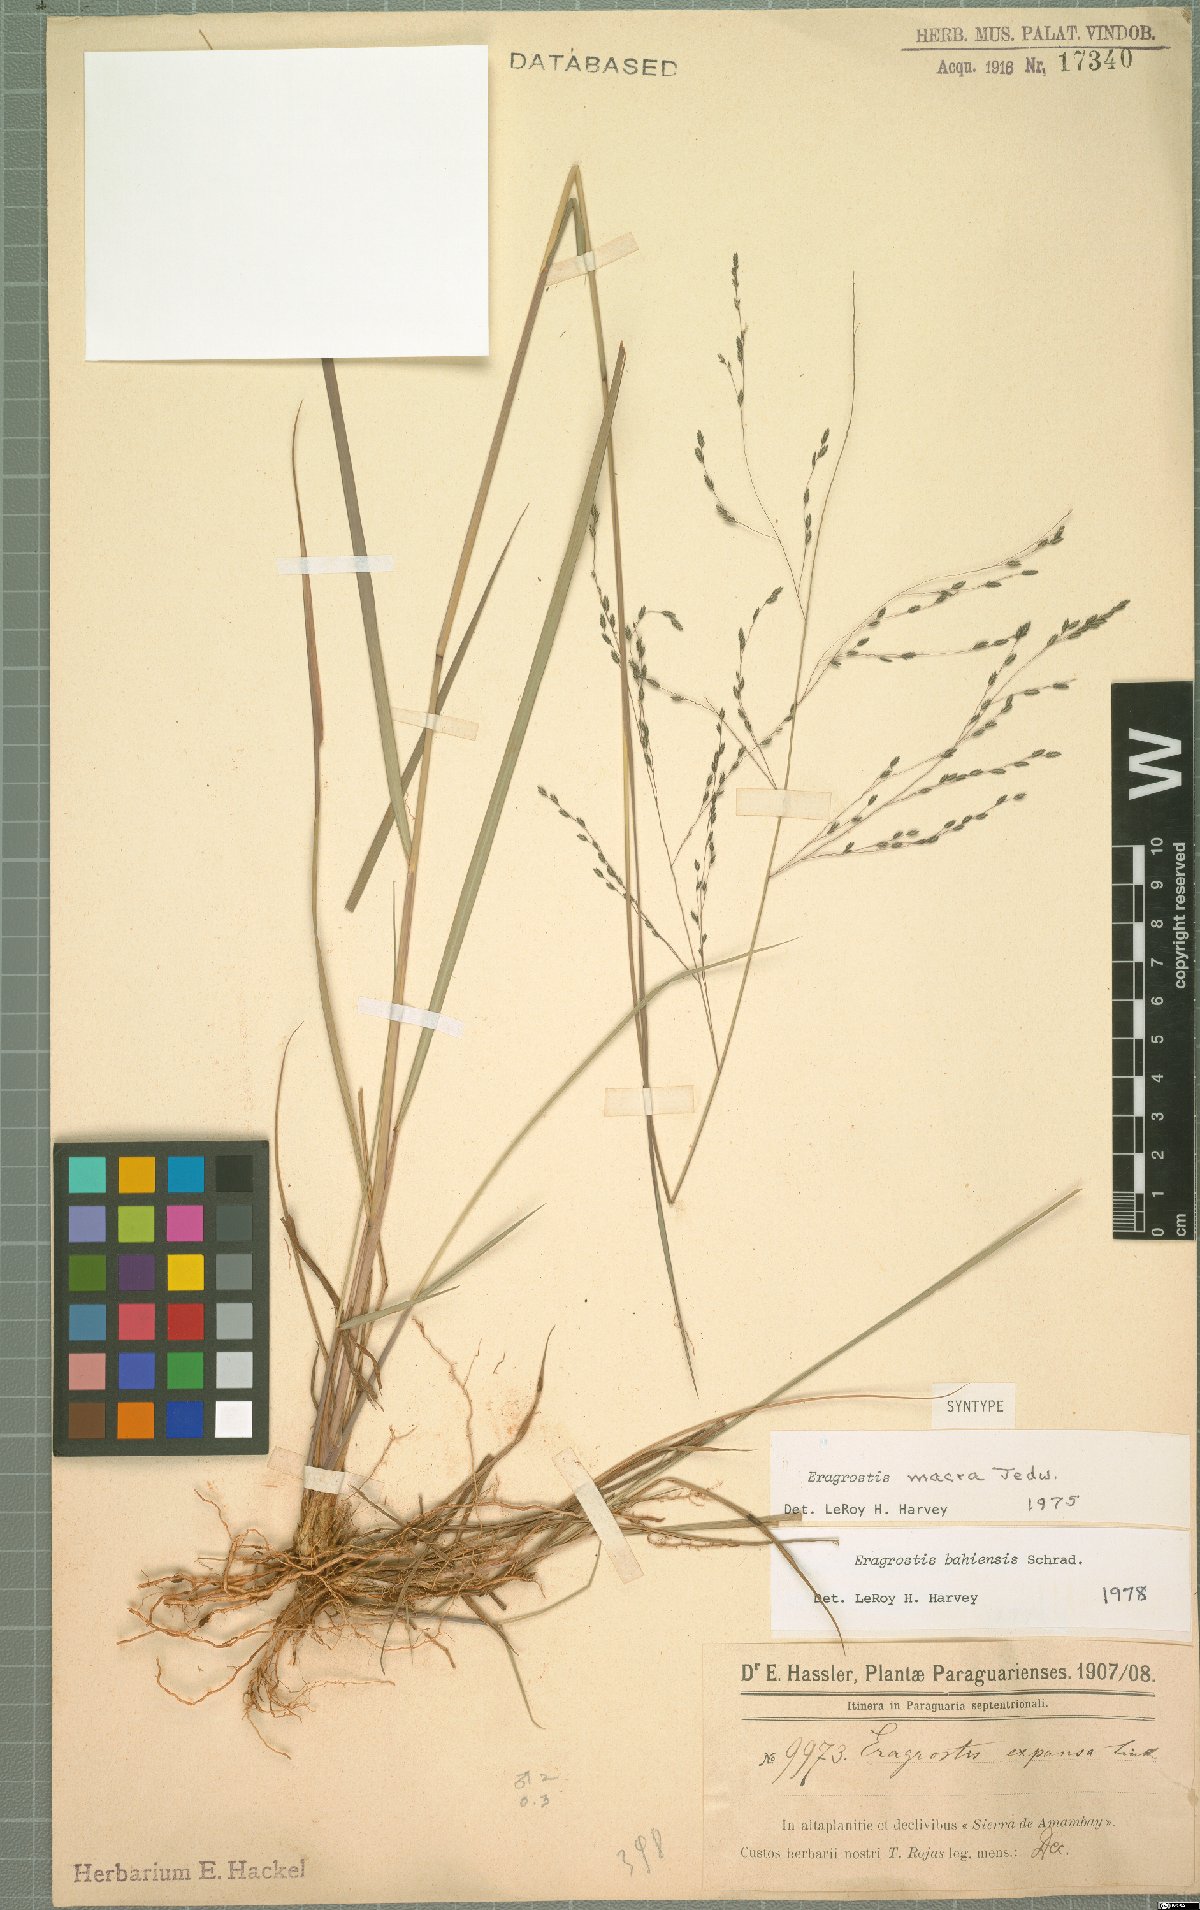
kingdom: Plantae
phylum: Tracheophyta
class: Liliopsida
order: Poales
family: Poaceae
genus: Eragrostis
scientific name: Eragrostis bahiensis
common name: Bahia lovegrass
